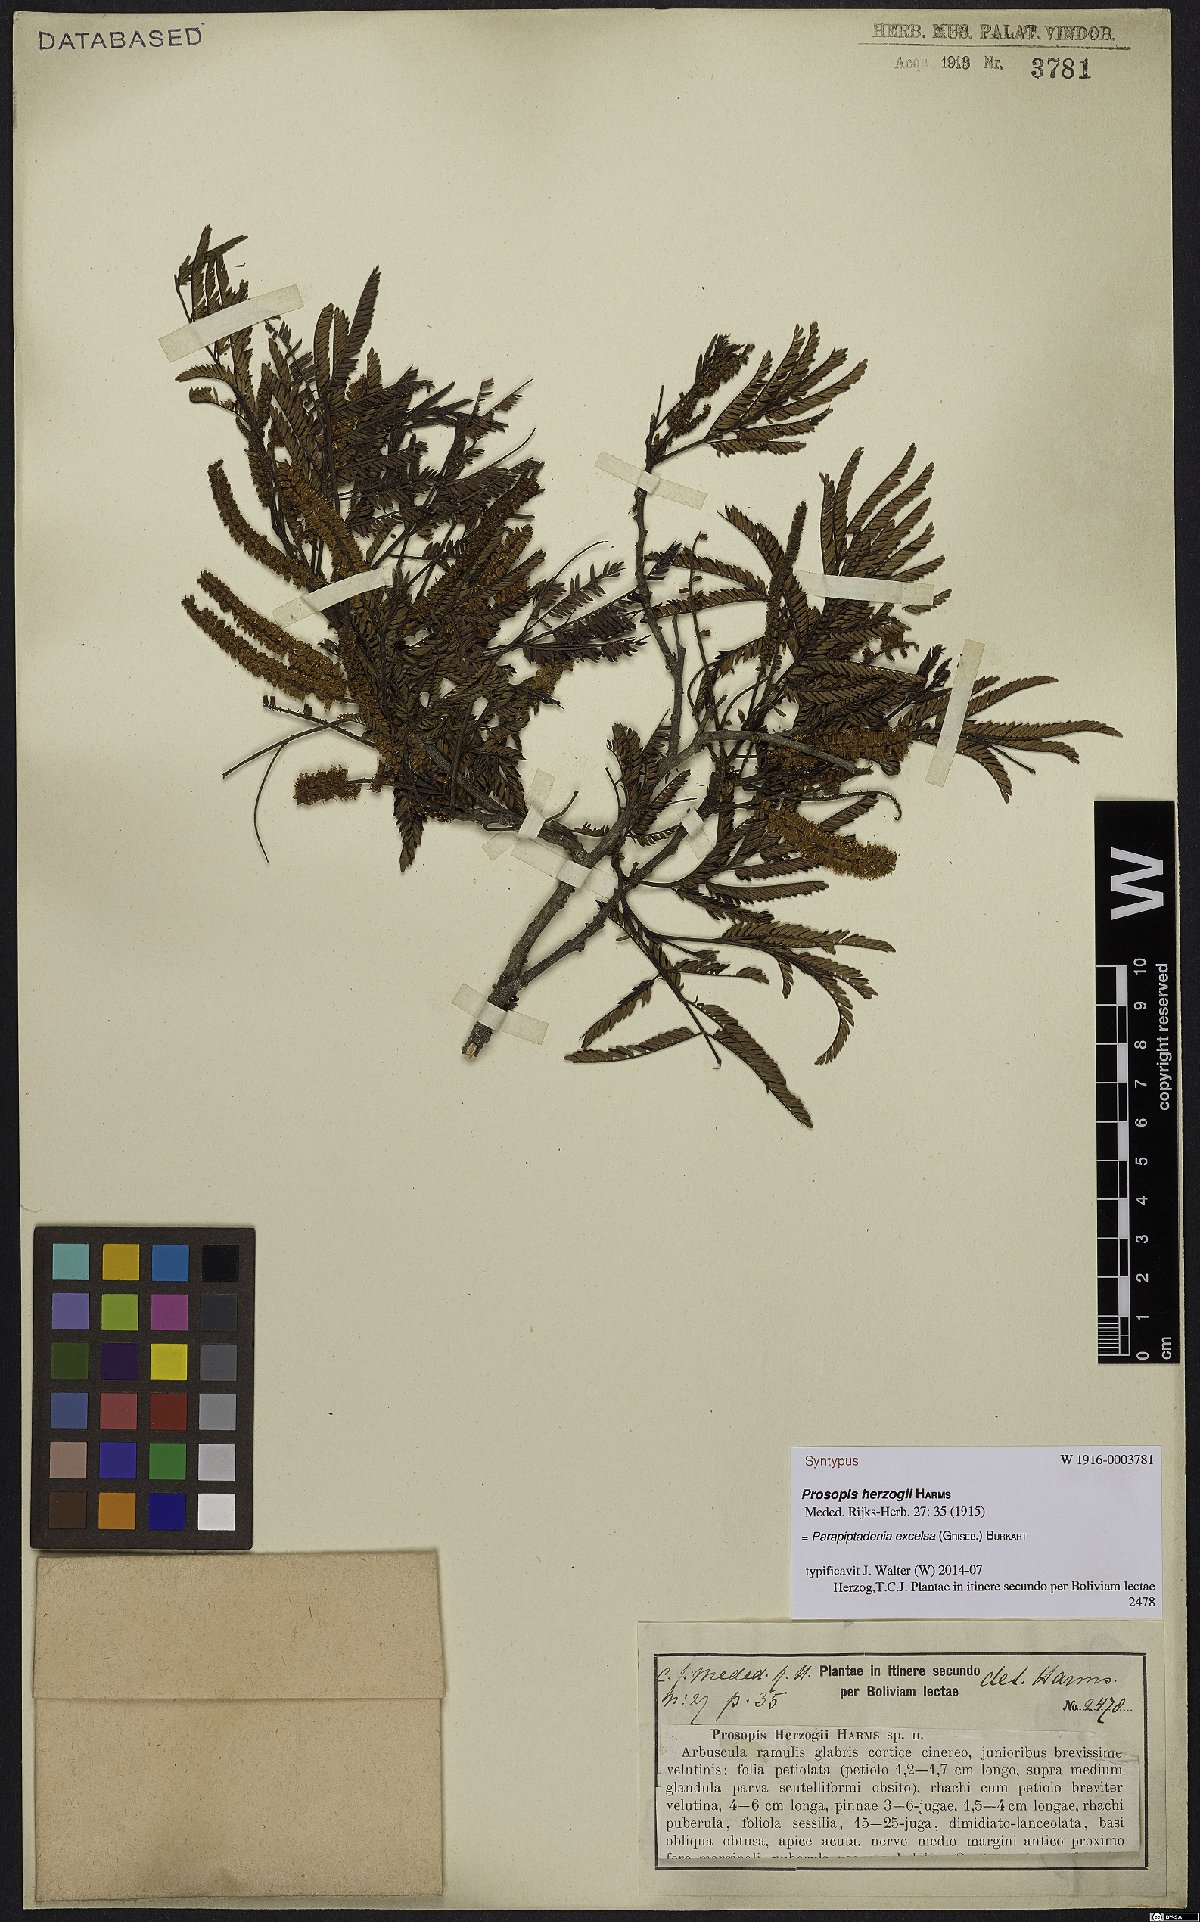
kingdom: Plantae
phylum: Tracheophyta
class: Magnoliopsida
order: Fabales
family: Fabaceae
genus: Parapiptadenia
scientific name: Parapiptadenia excelsa
